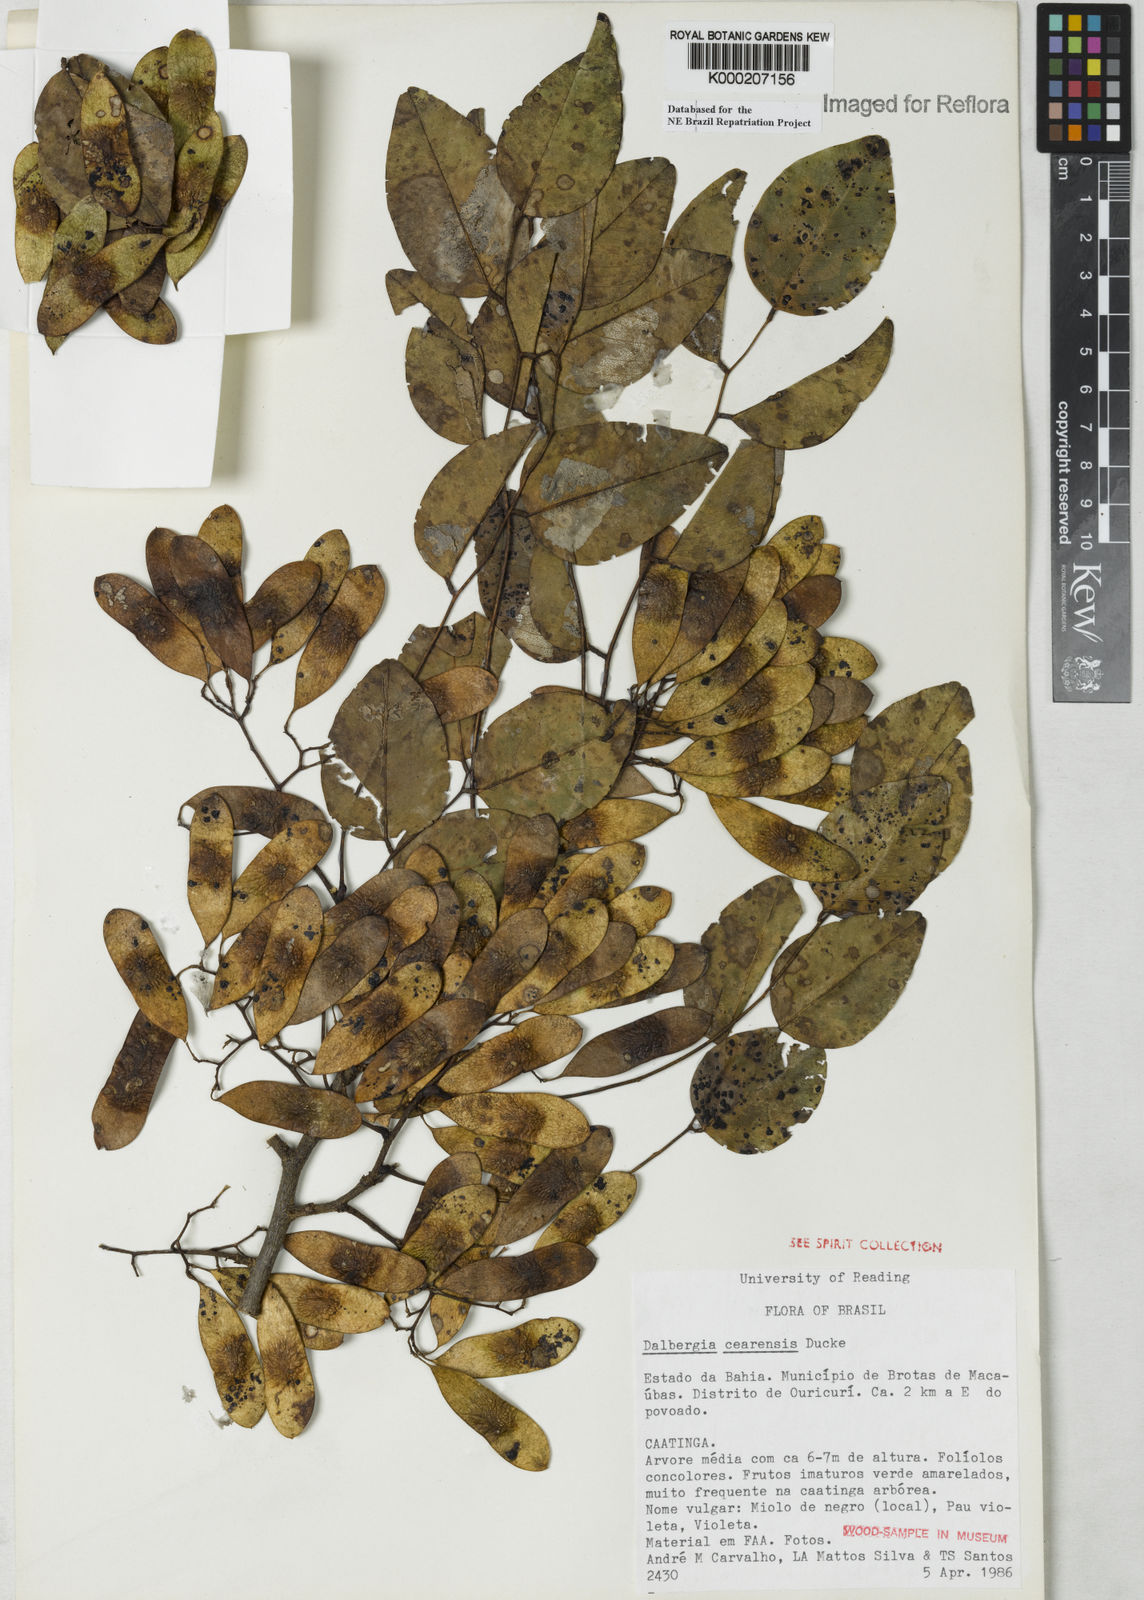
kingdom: Plantae
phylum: Tracheophyta
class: Magnoliopsida
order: Fabales
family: Fabaceae
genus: Dalbergia
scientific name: Dalbergia cearensis
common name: Brazilian-king-wood
